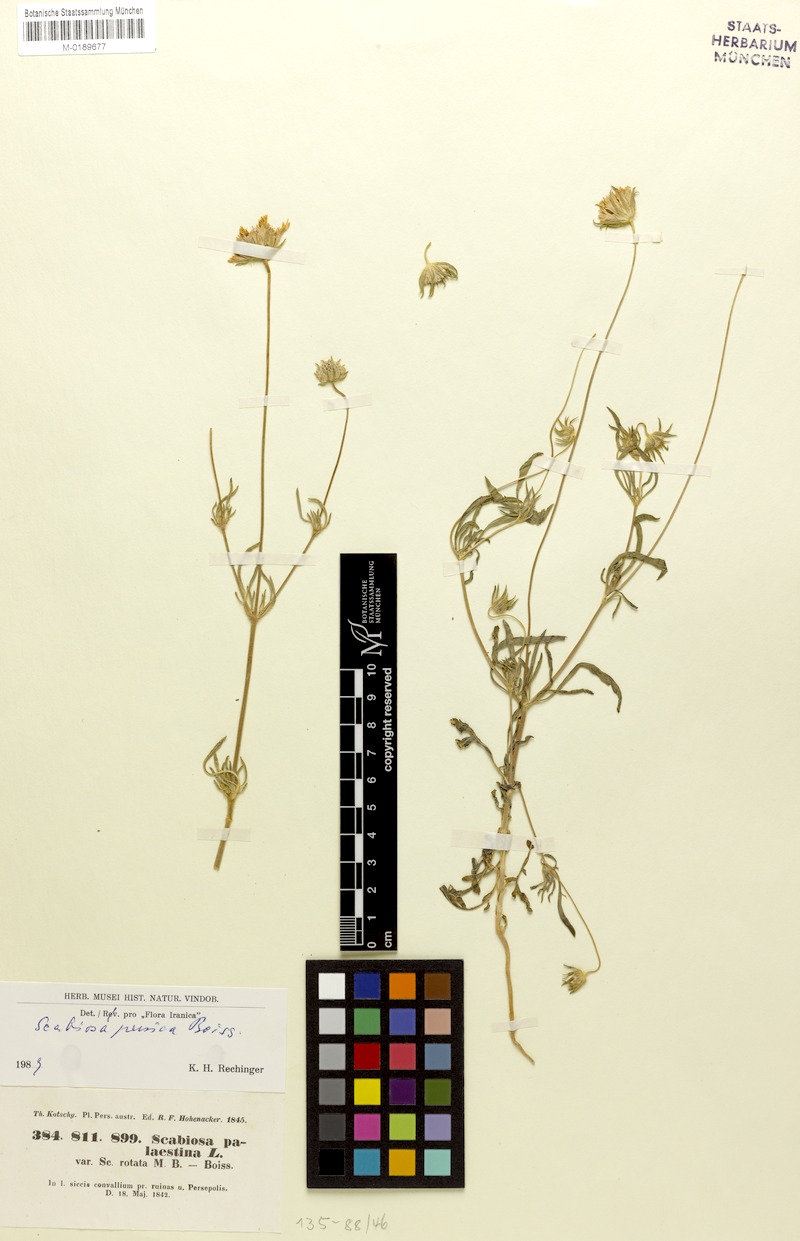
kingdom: Plantae
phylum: Tracheophyta
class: Magnoliopsida
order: Dipsacales
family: Caprifoliaceae
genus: Lomelosia
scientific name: Lomelosia persica
